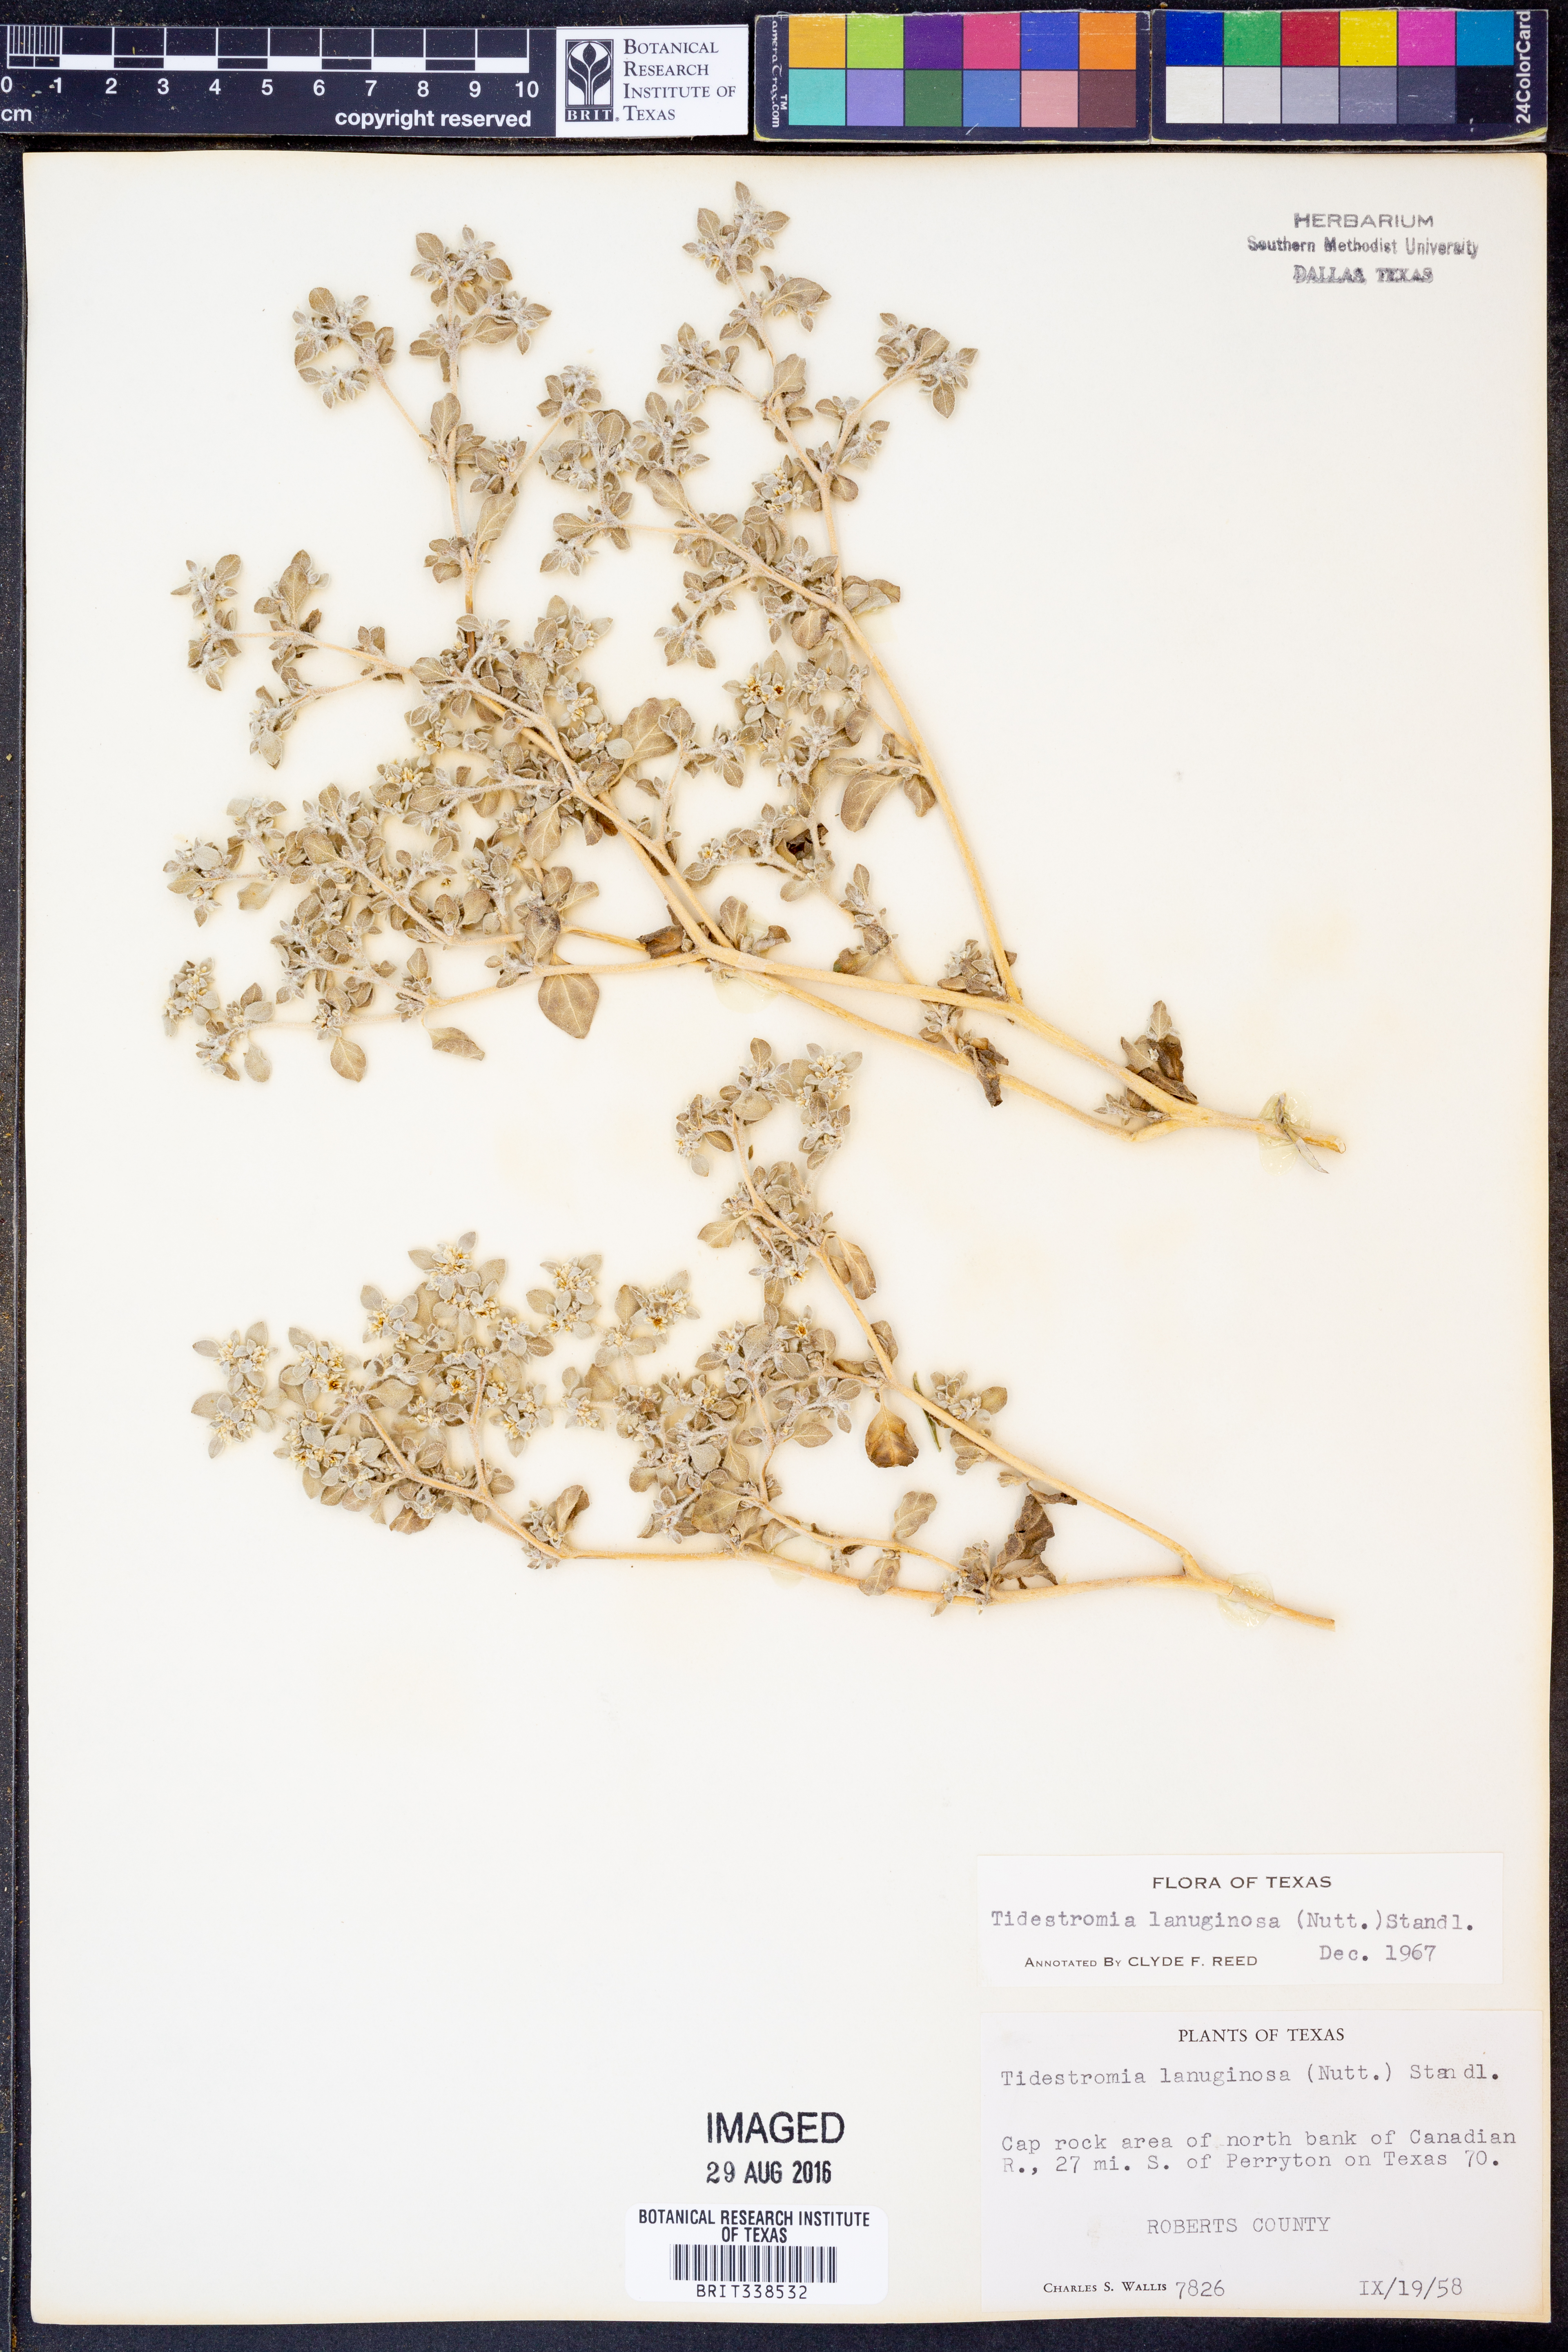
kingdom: Plantae
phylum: Tracheophyta
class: Magnoliopsida
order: Caryophyllales
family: Amaranthaceae
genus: Tidestromia
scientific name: Tidestromia lanuginosa
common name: Woolly tidestromia
